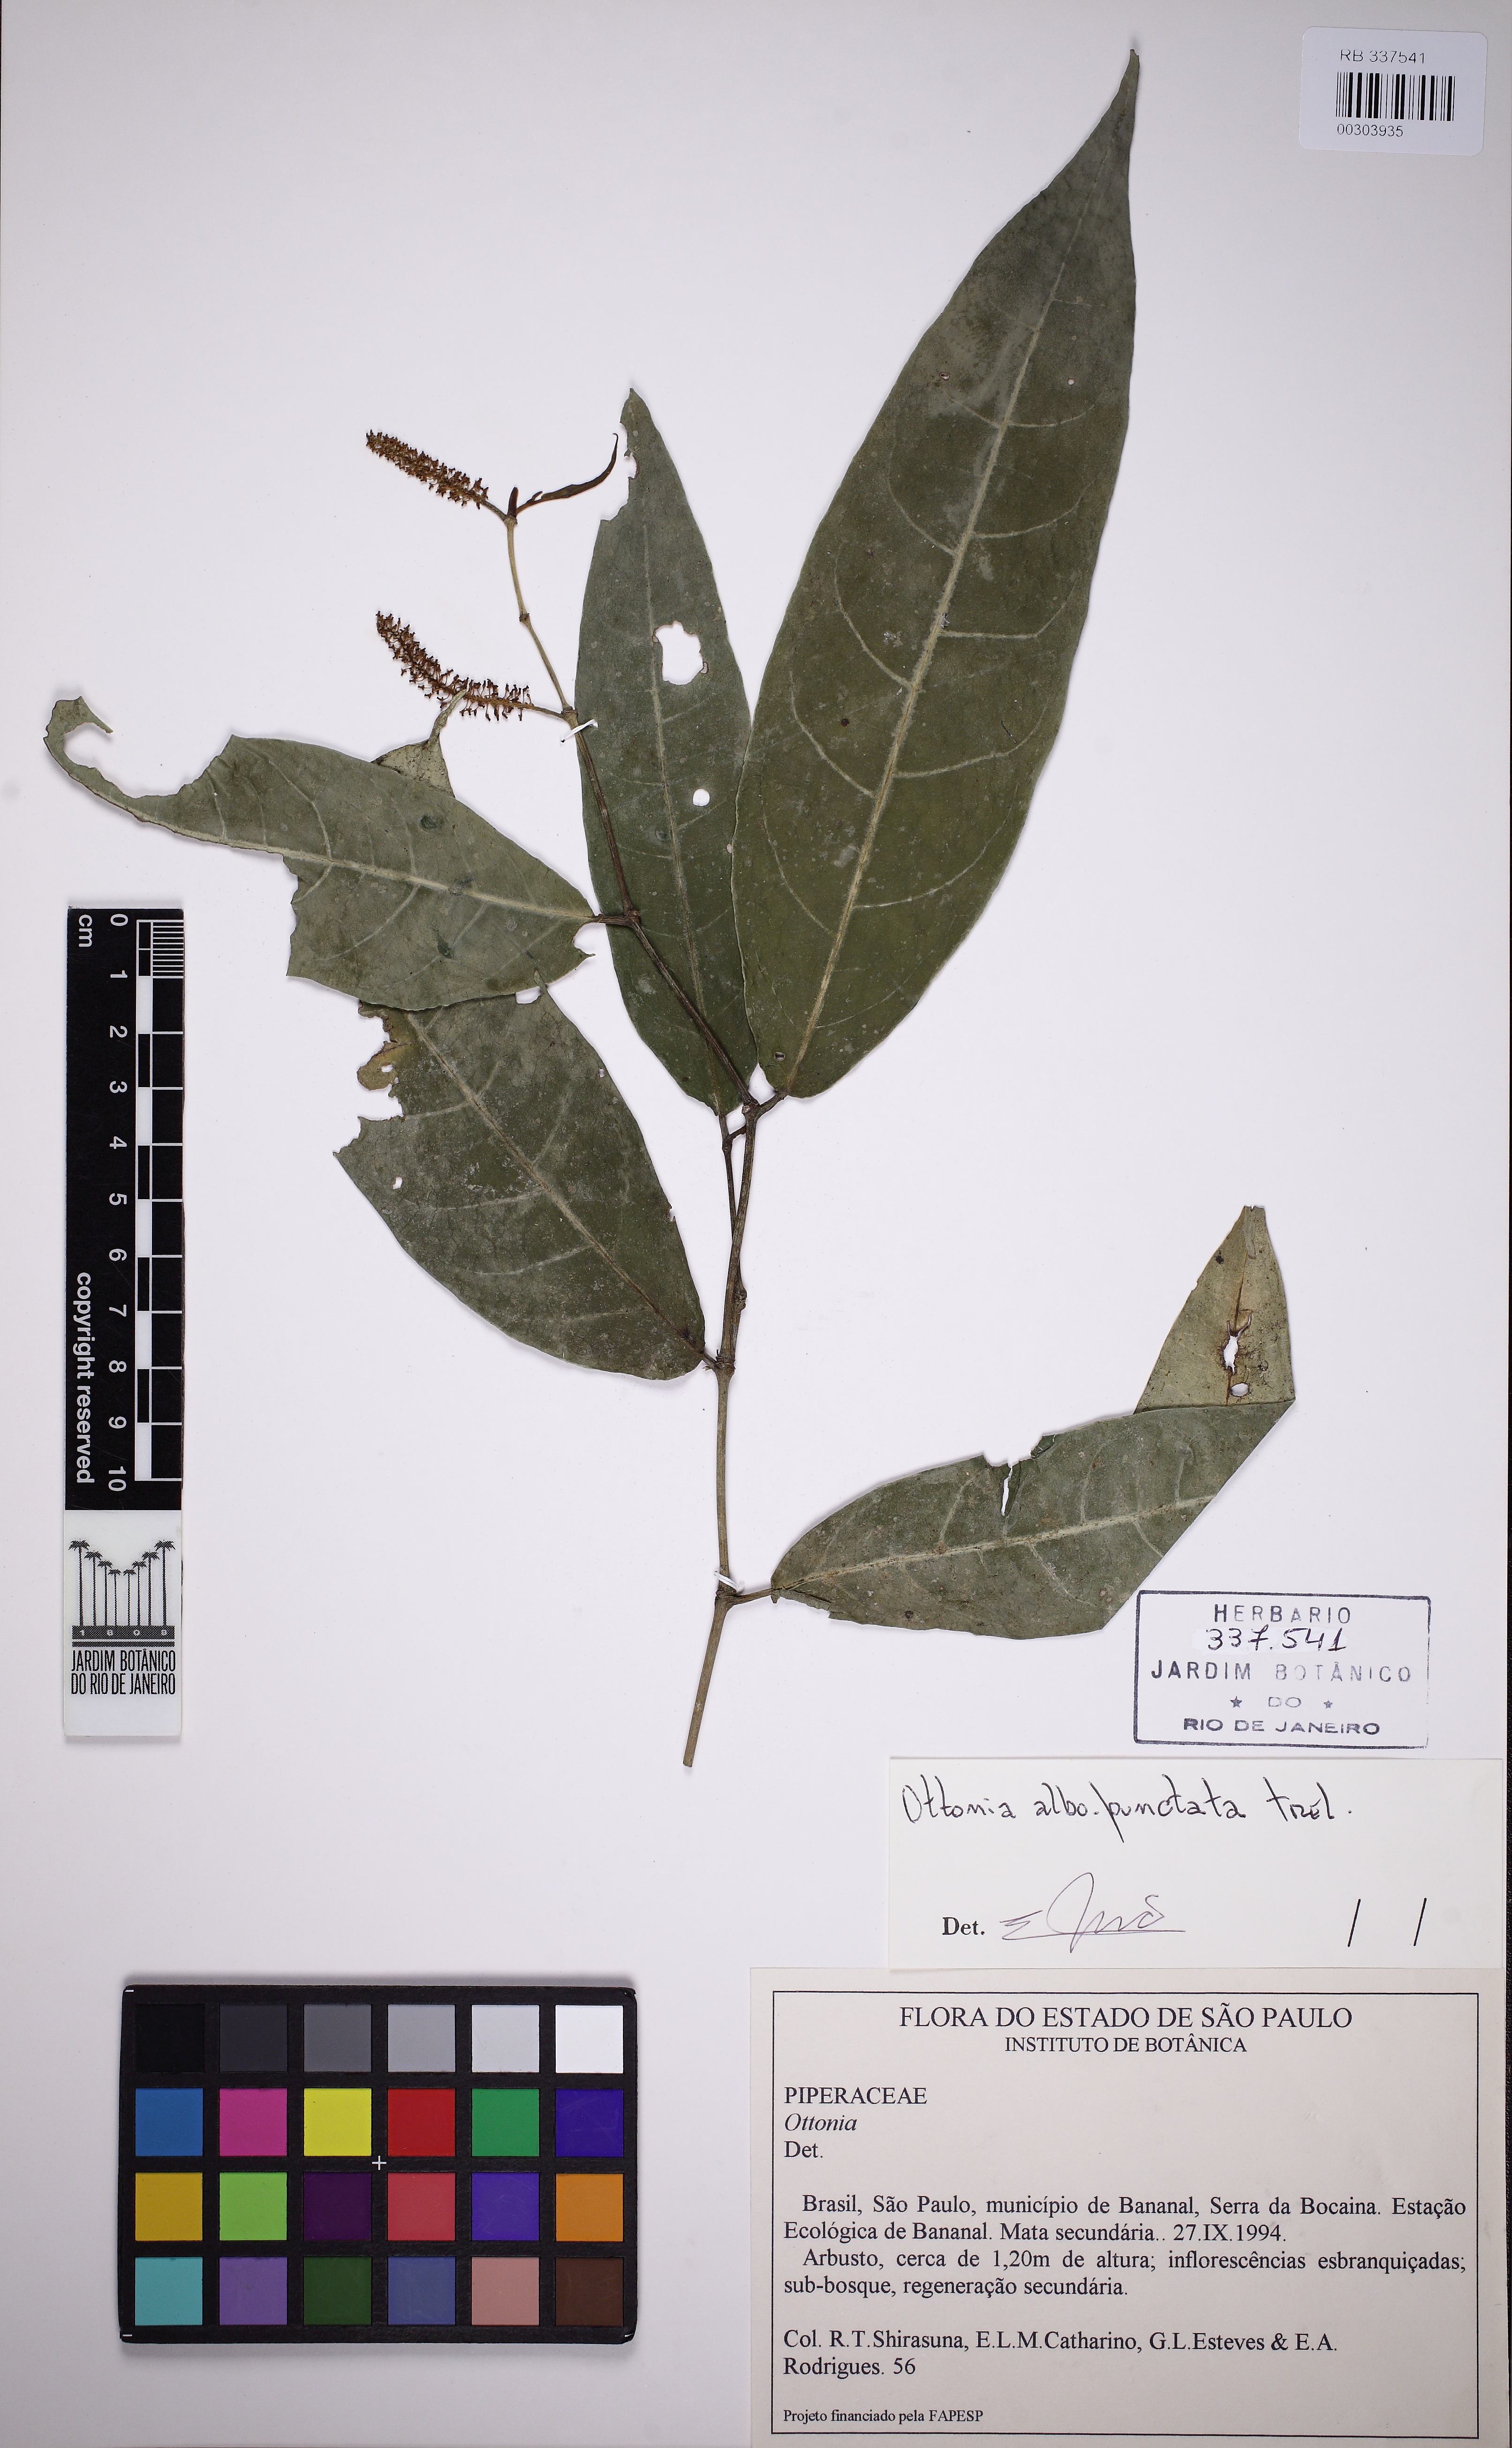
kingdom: Plantae
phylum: Tracheophyta
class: Magnoliopsida
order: Piperales
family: Piperaceae
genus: Piper
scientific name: Piper corcovadense
